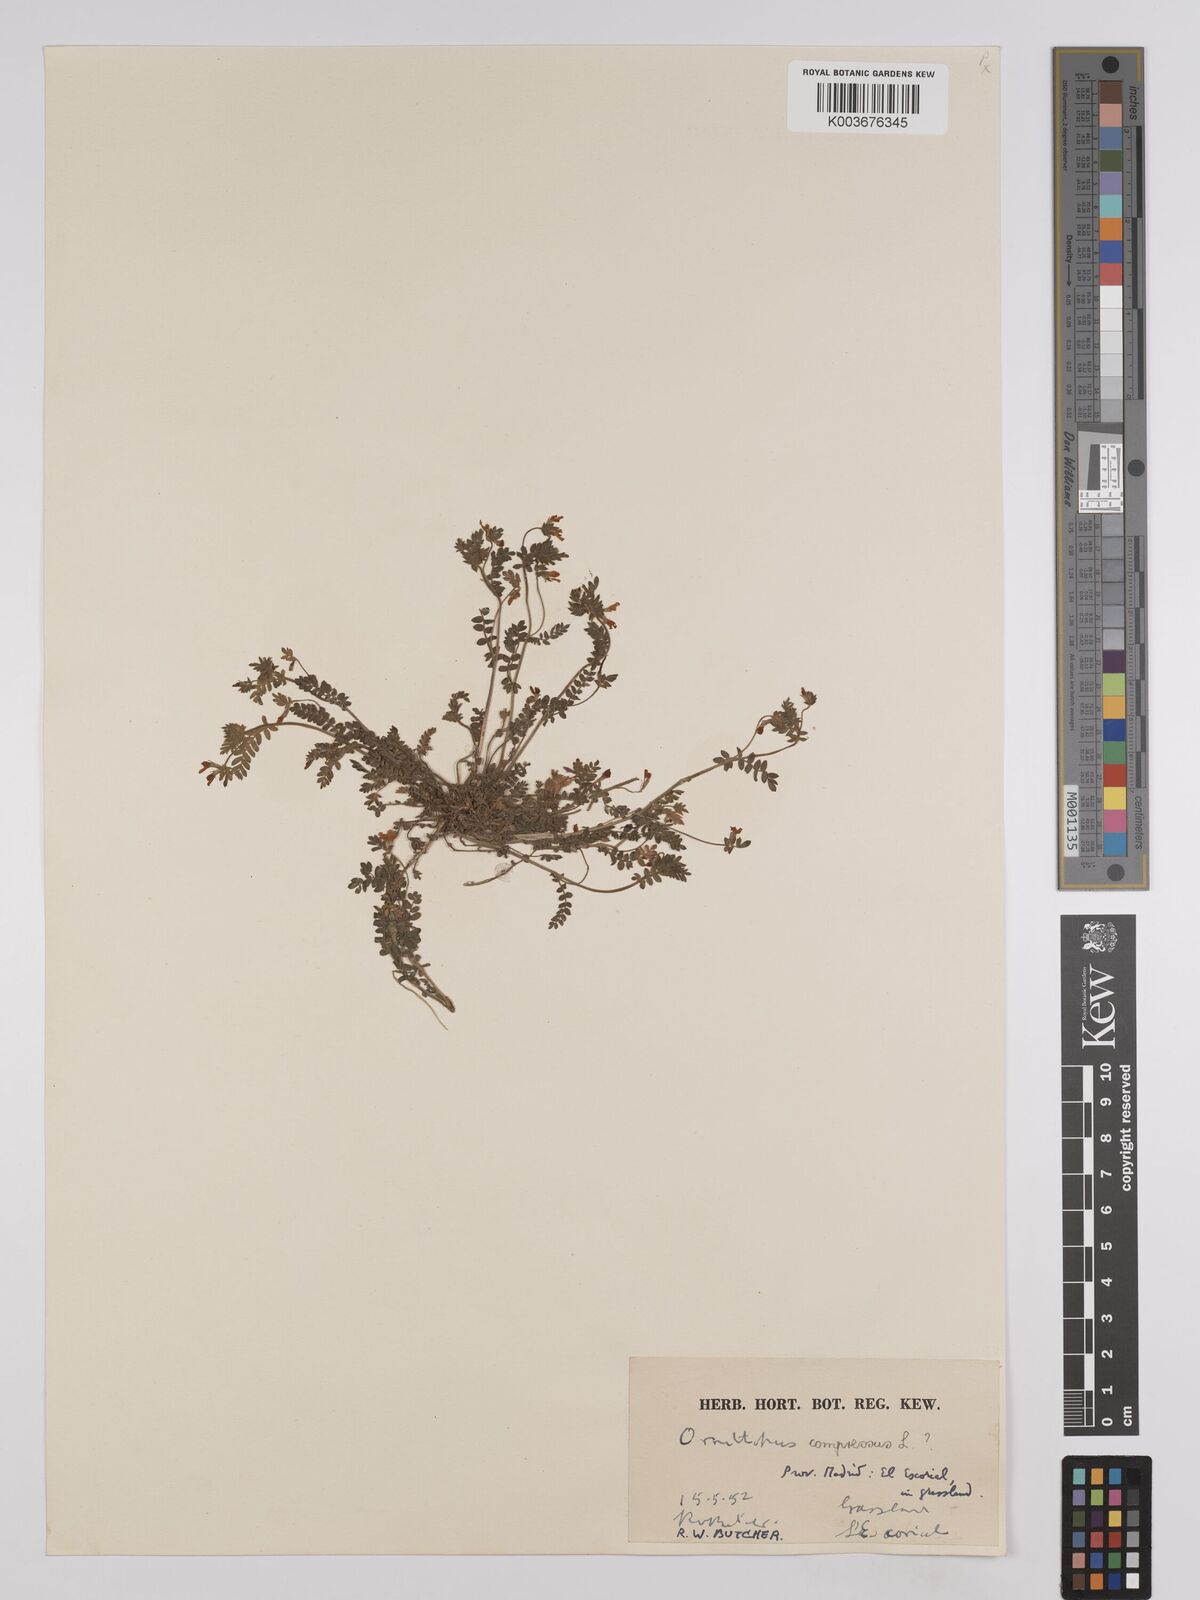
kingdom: Plantae
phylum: Tracheophyta
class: Magnoliopsida
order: Fabales
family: Fabaceae
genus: Ornithopus
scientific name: Ornithopus compressus
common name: Yellow serradella
